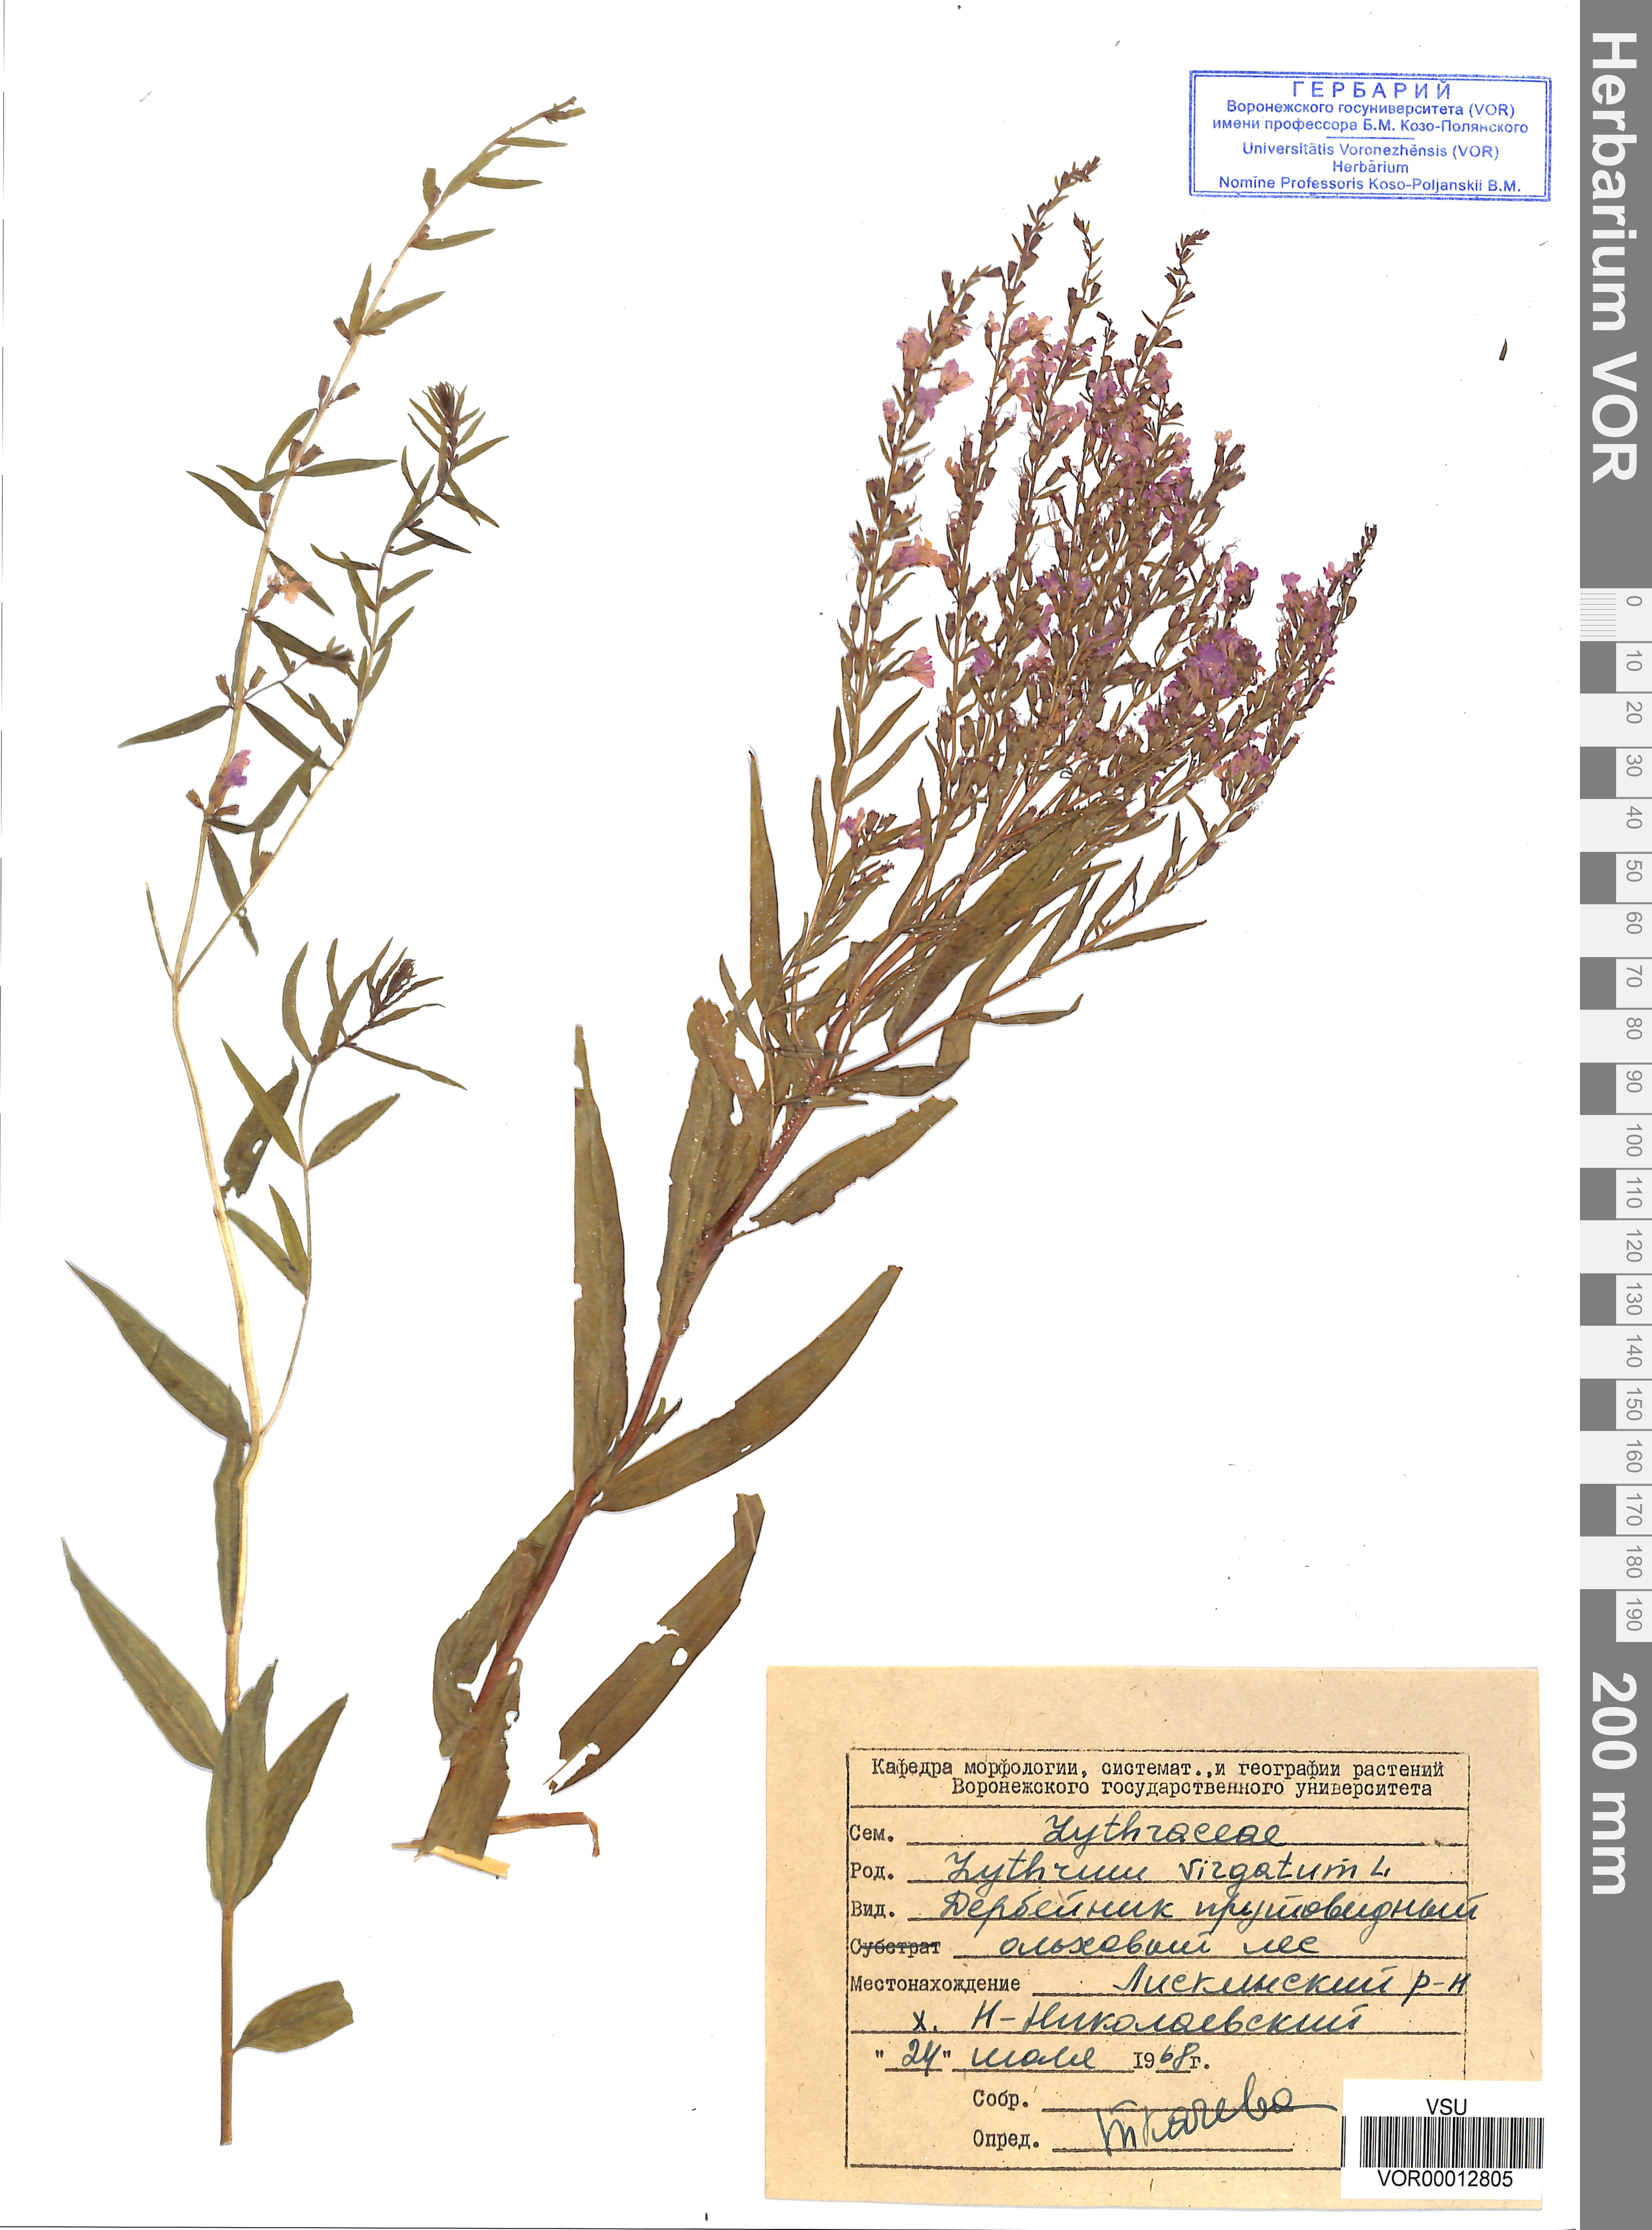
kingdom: Plantae
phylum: Tracheophyta
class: Magnoliopsida
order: Myrtales
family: Lythraceae
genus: Lythrum
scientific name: Lythrum virgatum
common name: European wand loosestrife
